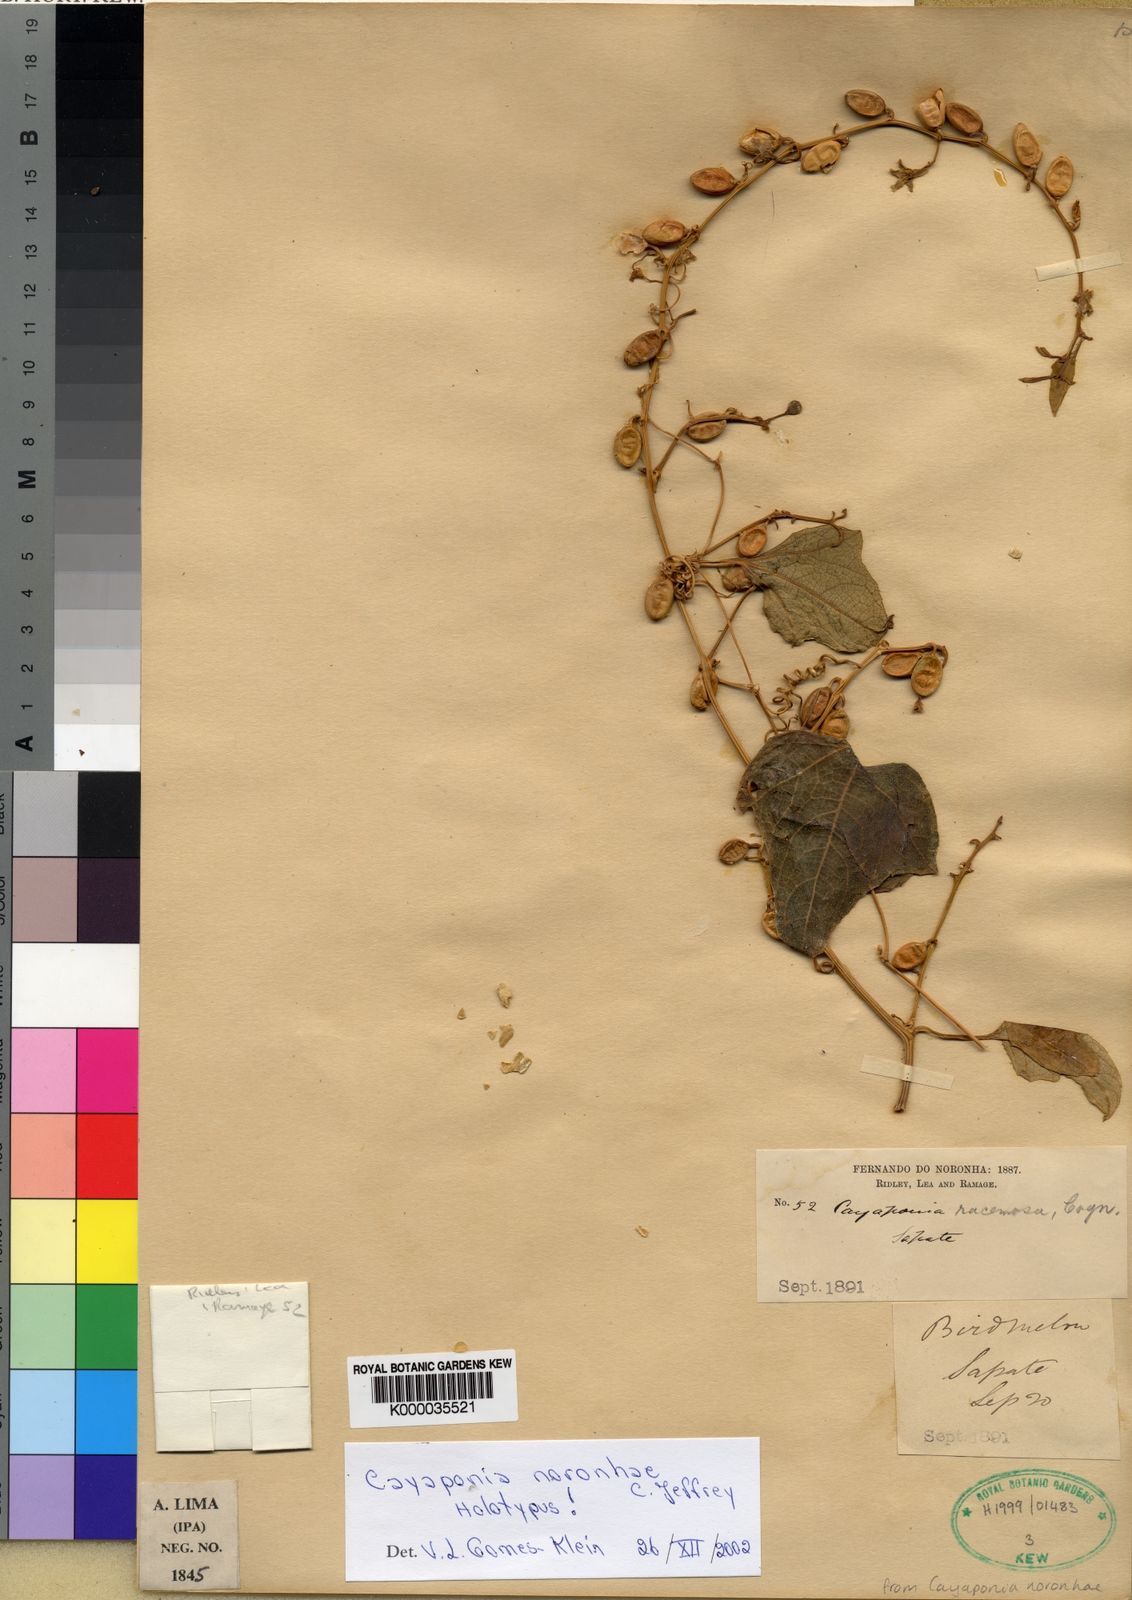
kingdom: Plantae
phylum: Tracheophyta
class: Magnoliopsida
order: Cucurbitales
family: Cucurbitaceae
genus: Cayaponia
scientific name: Cayaponia noronhae
